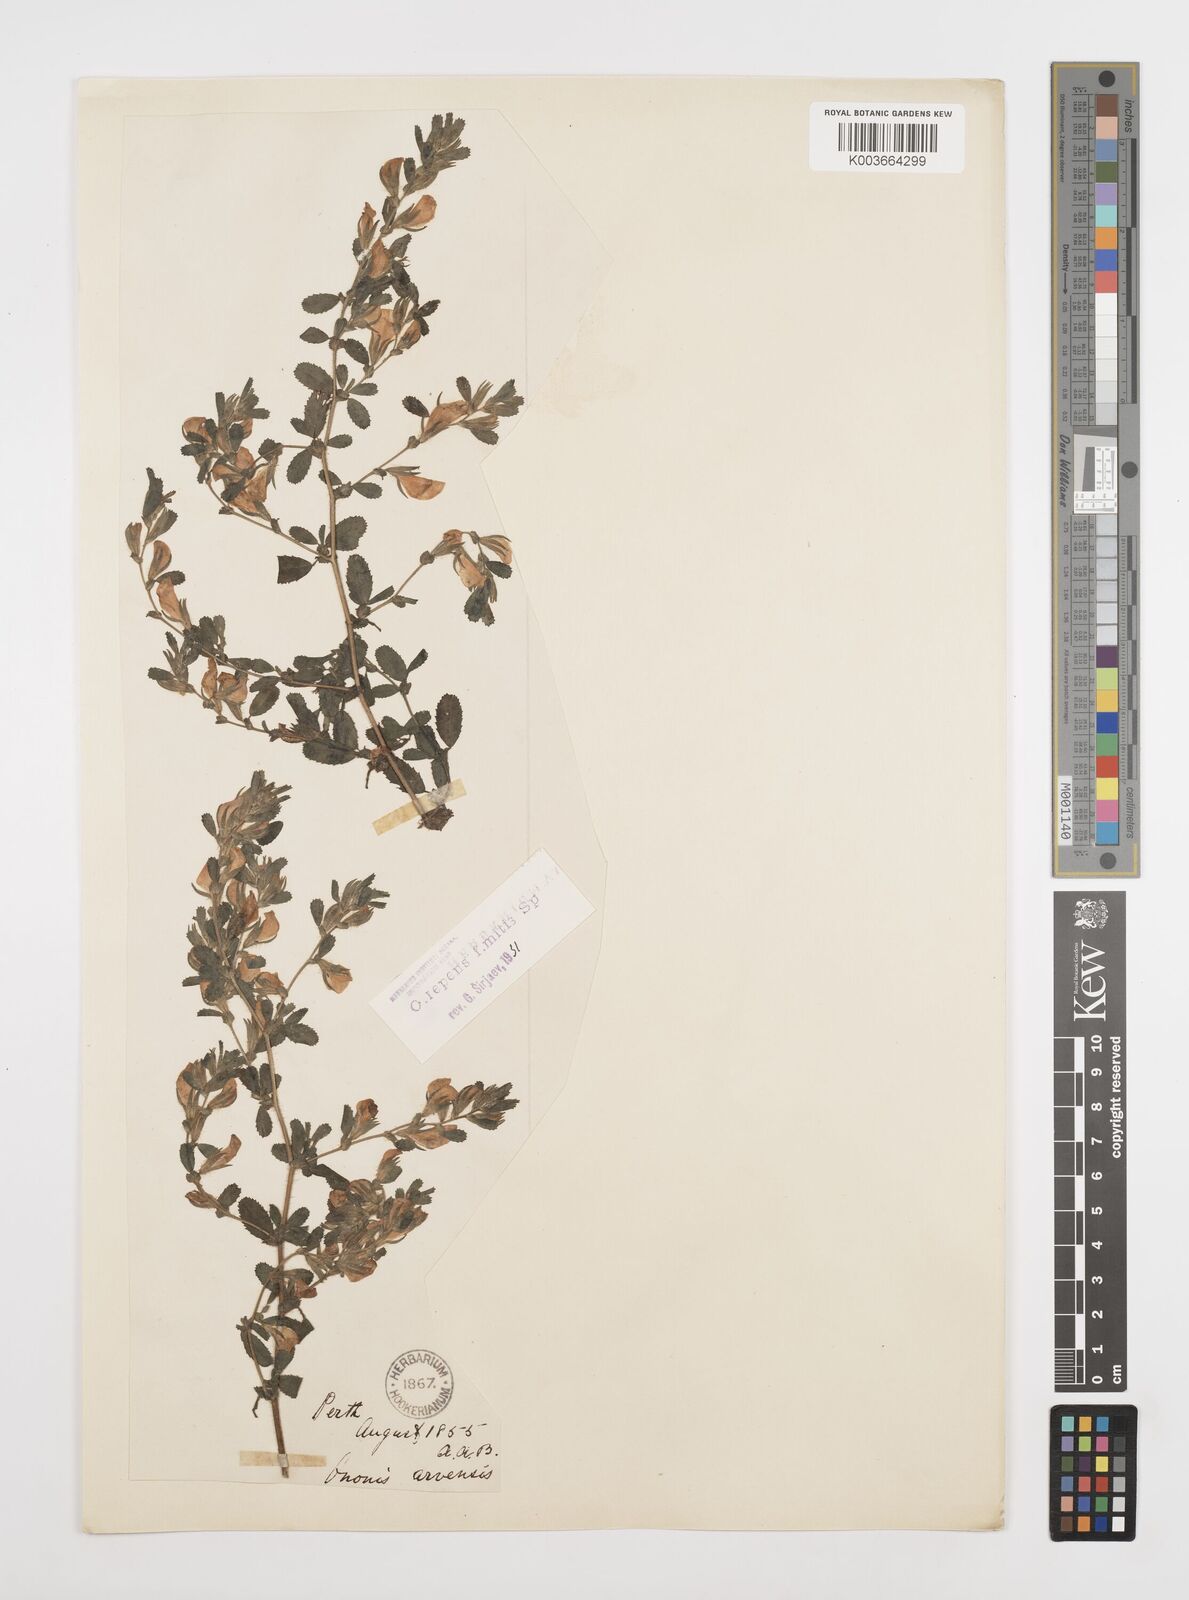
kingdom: Plantae
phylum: Tracheophyta
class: Magnoliopsida
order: Fabales
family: Fabaceae
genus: Ononis
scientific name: Ononis spinosa
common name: Spiny restharrow
